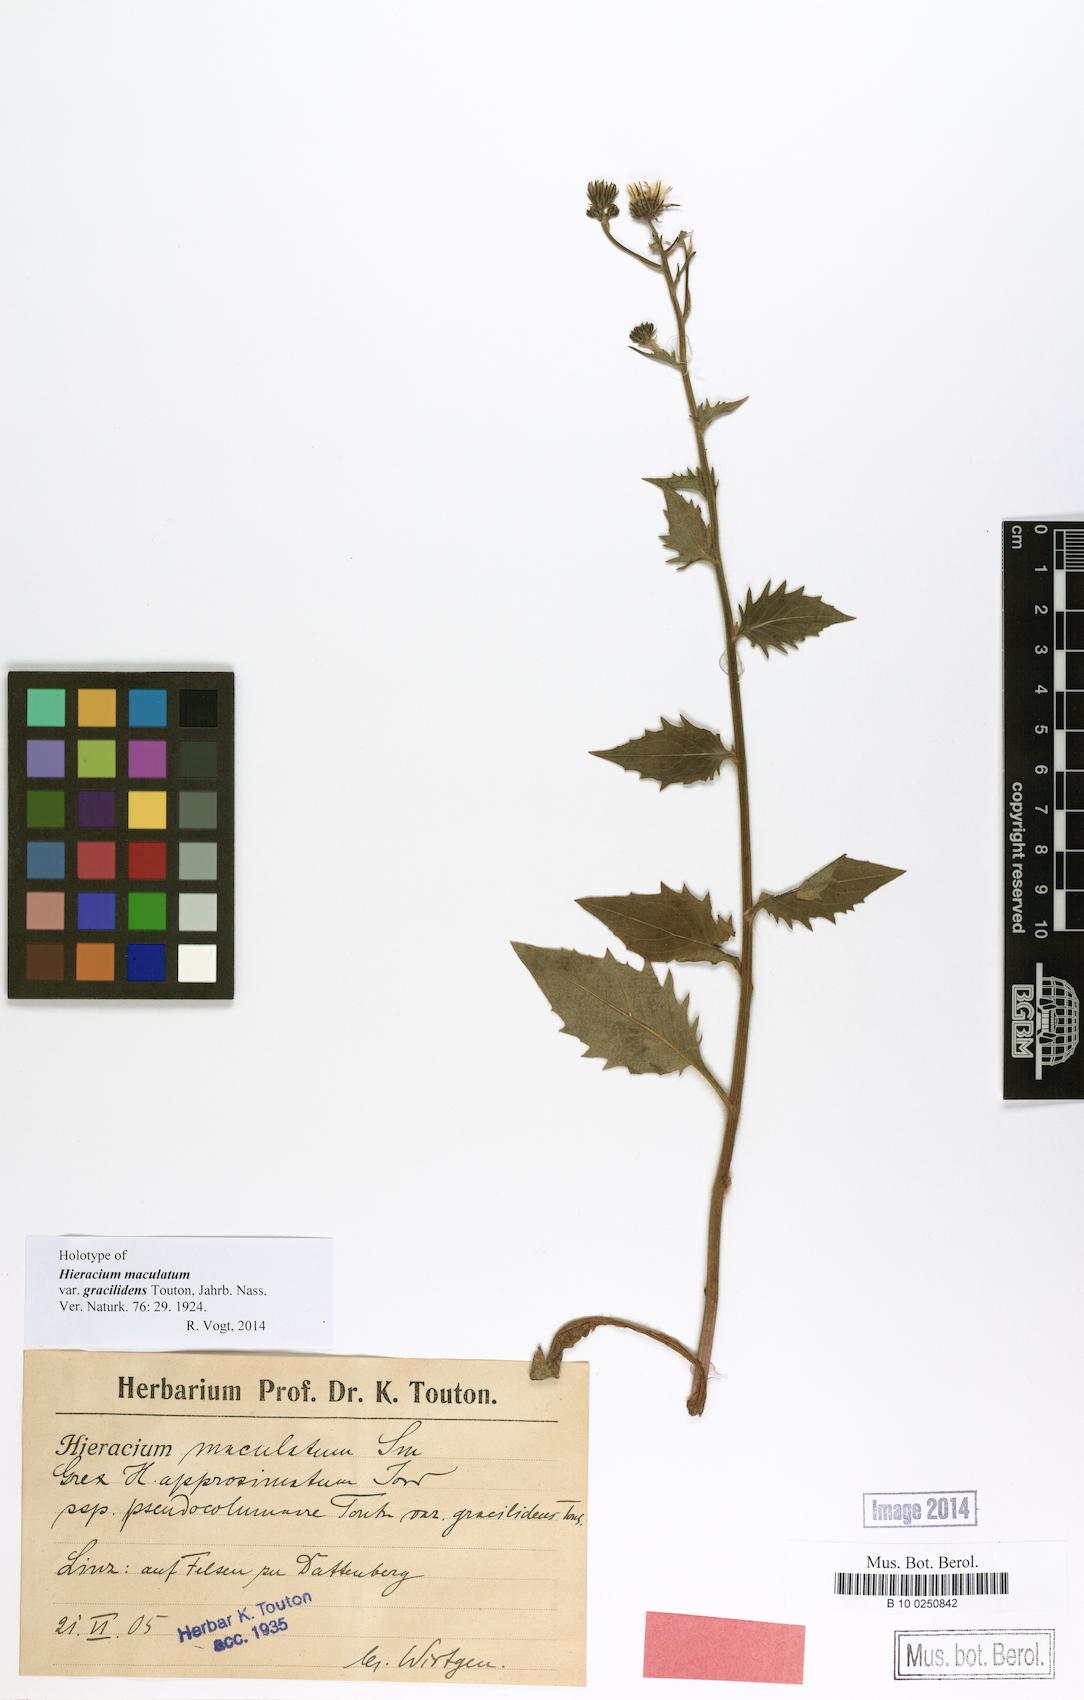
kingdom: Plantae
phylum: Tracheophyta
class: Magnoliopsida
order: Asterales
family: Asteraceae
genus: Hieracium
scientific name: Hieracium maculatum
